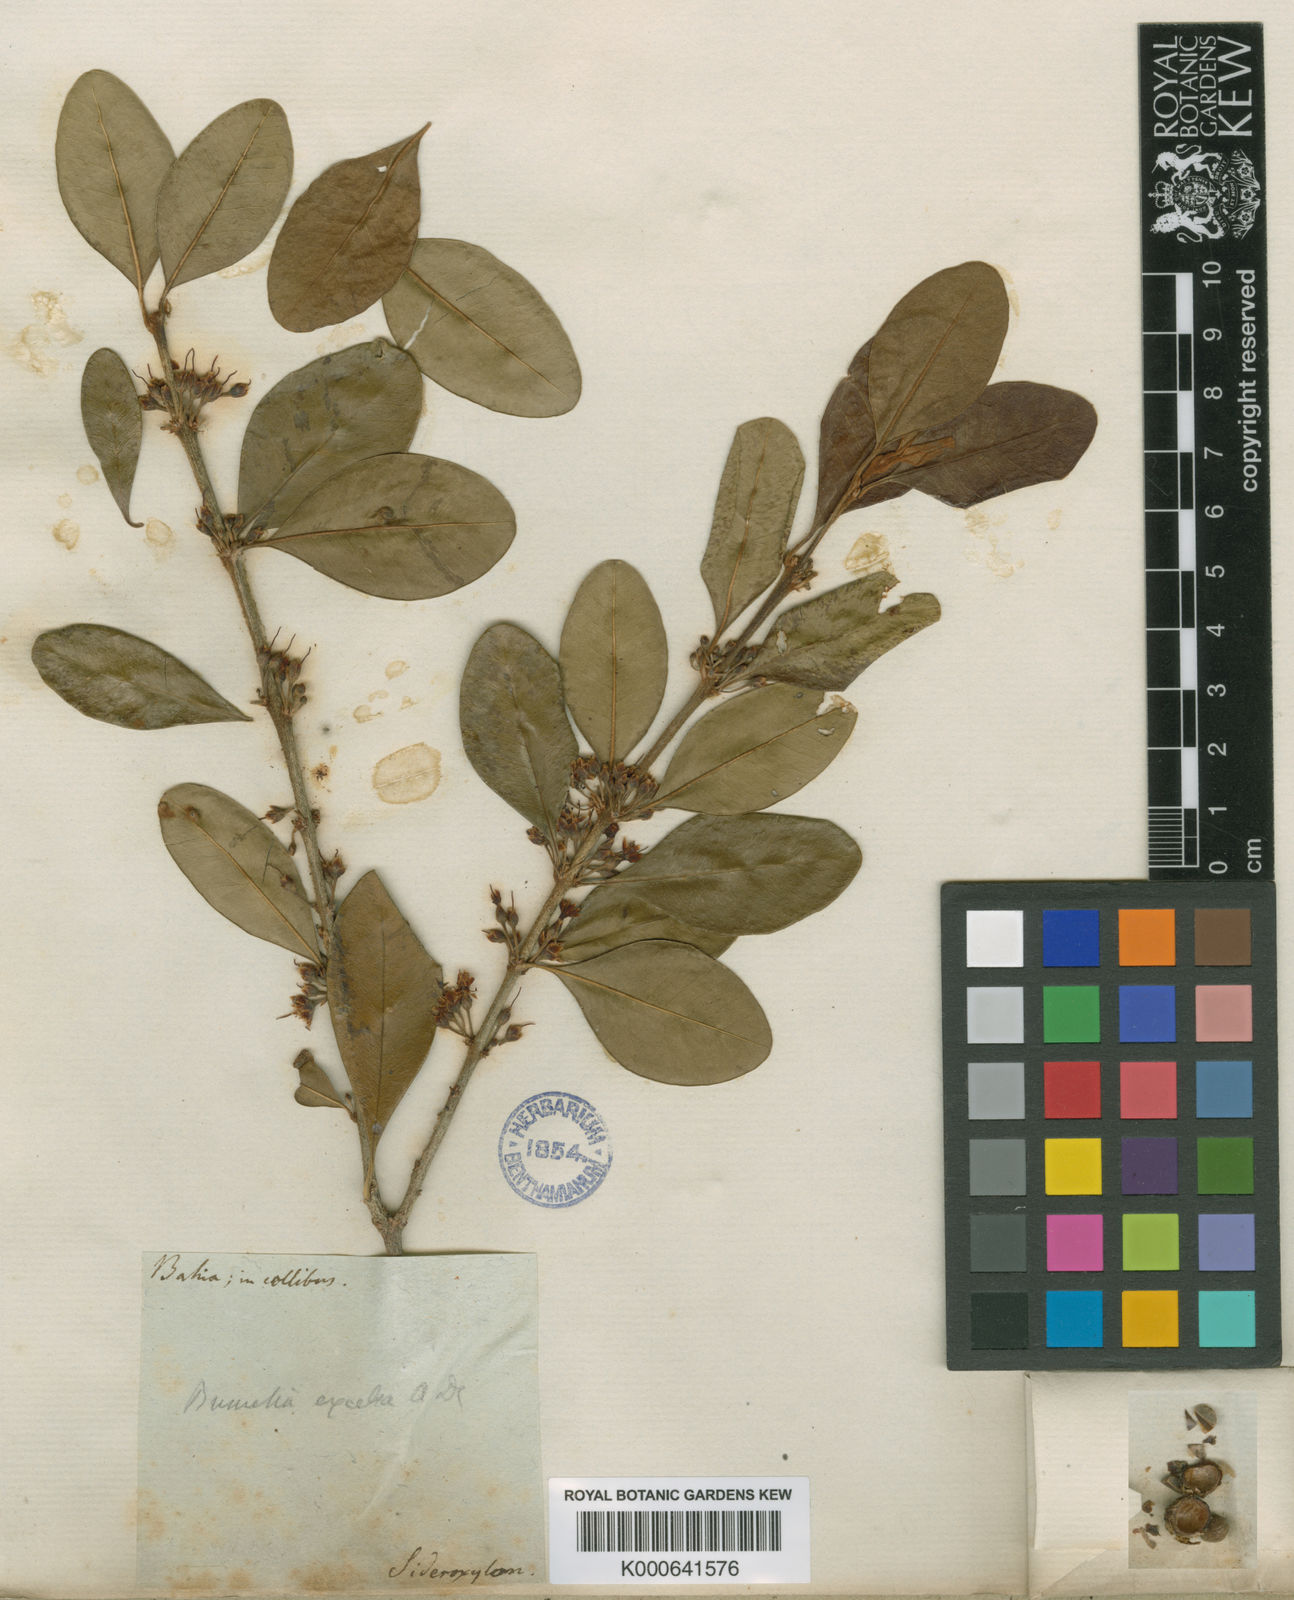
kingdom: Plantae
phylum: Tracheophyta
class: Magnoliopsida
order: Ericales
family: Sapotaceae
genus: Sideroxylon
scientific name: Sideroxylon obtusifolium
